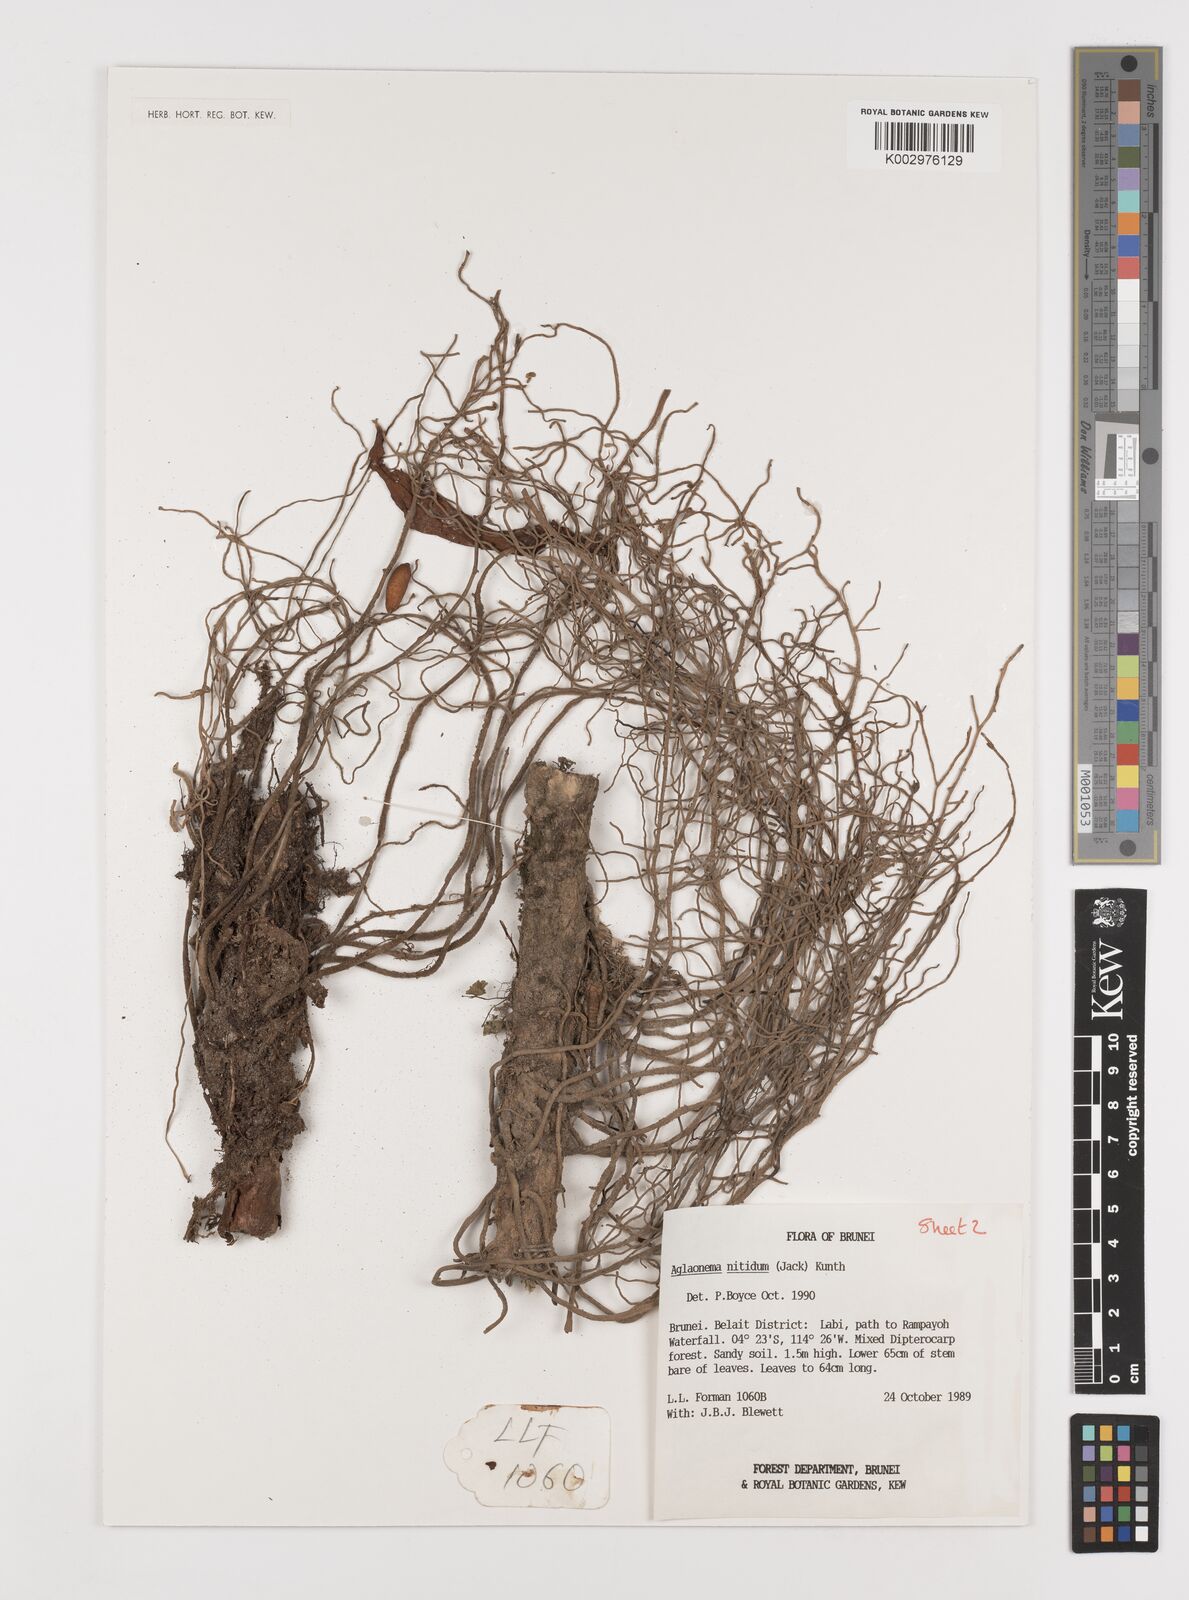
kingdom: Plantae
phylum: Tracheophyta
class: Liliopsida
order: Alismatales
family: Araceae
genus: Aglaonema
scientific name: Aglaonema nitidum
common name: Aglaonema aroid
